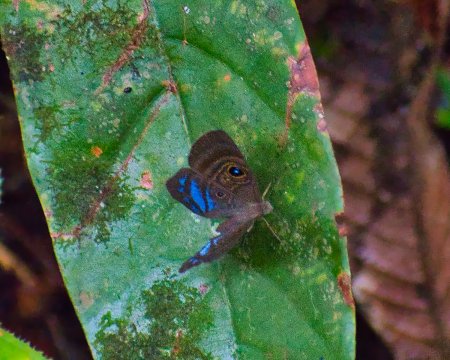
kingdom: Animalia
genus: Mesosemia
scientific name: Mesosemia lamachus
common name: Purple-washed Eyed-Metalmark
